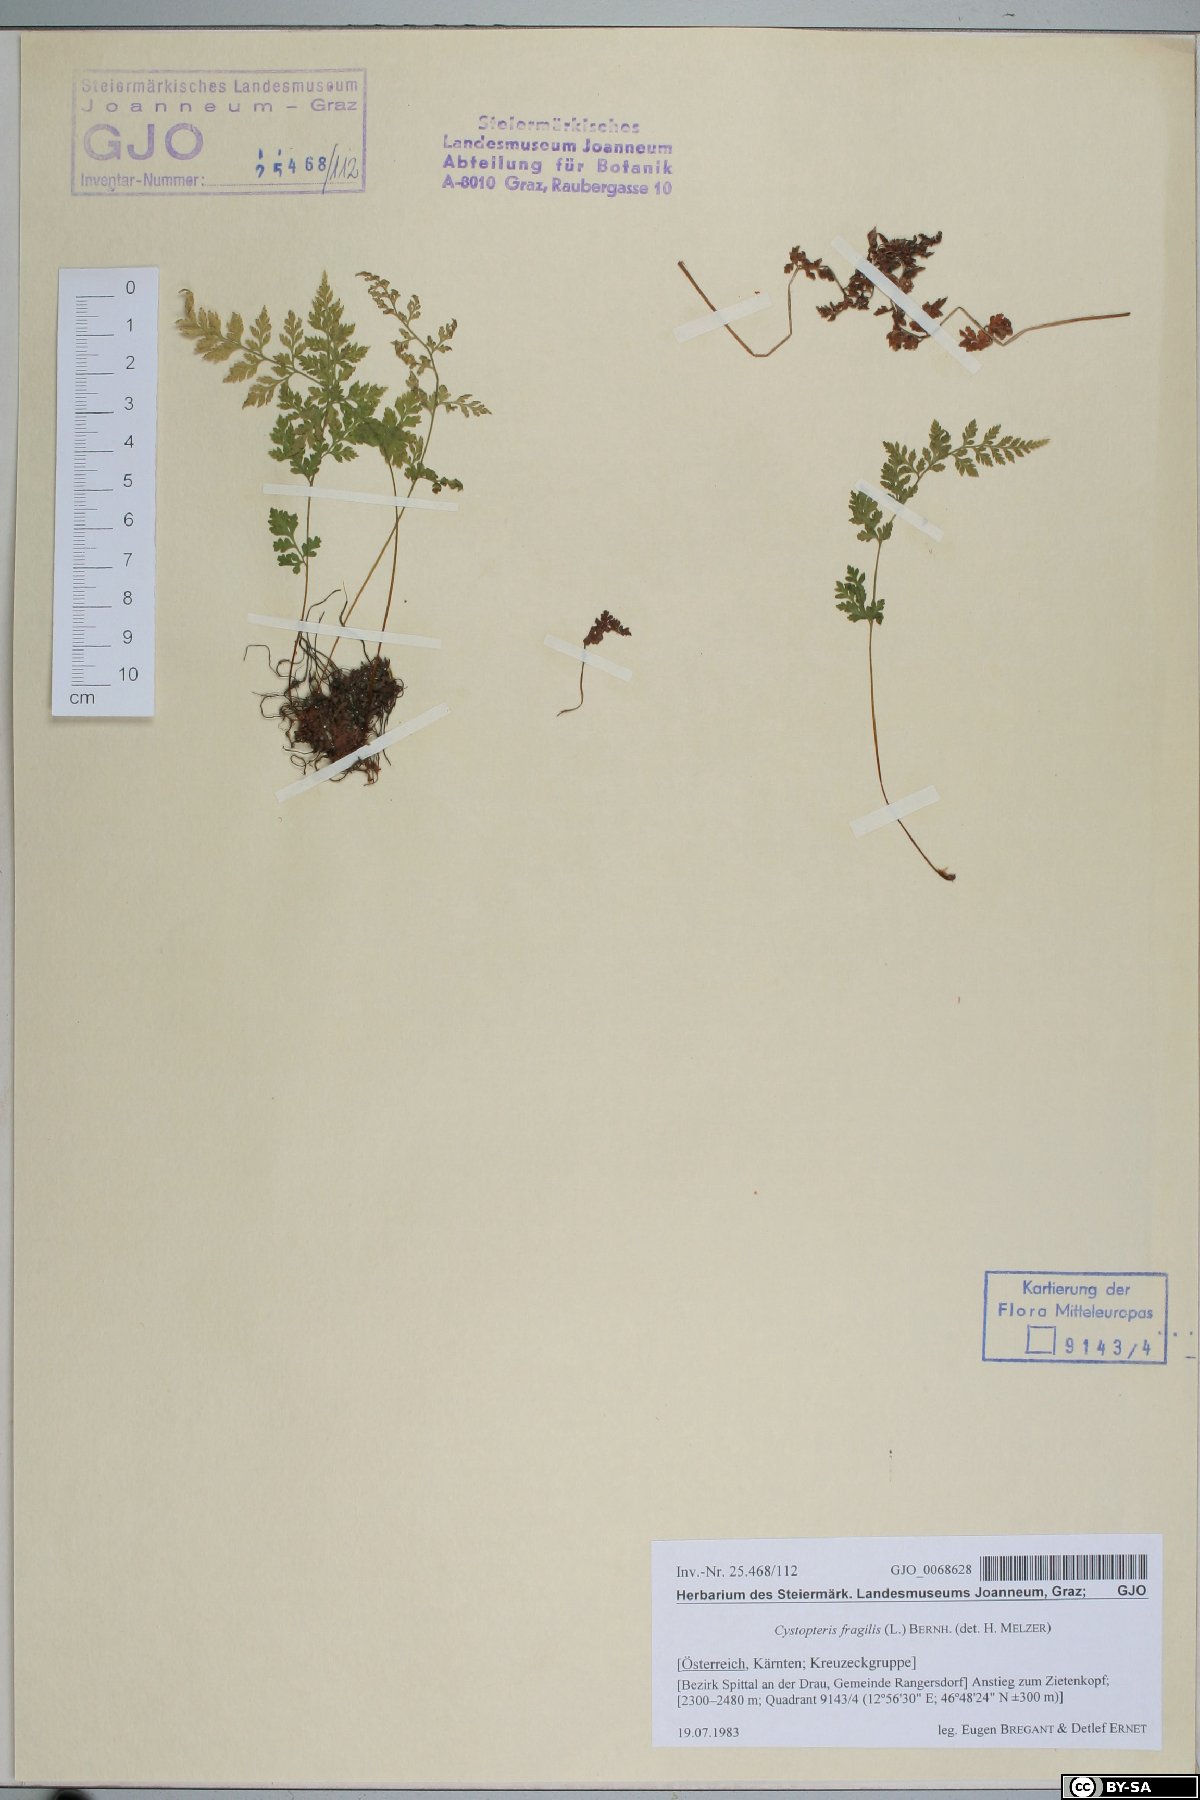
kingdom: Plantae
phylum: Tracheophyta
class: Polypodiopsida
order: Polypodiales
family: Cystopteridaceae
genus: Cystopteris
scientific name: Cystopteris fragilis
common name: Brittle bladder fern
